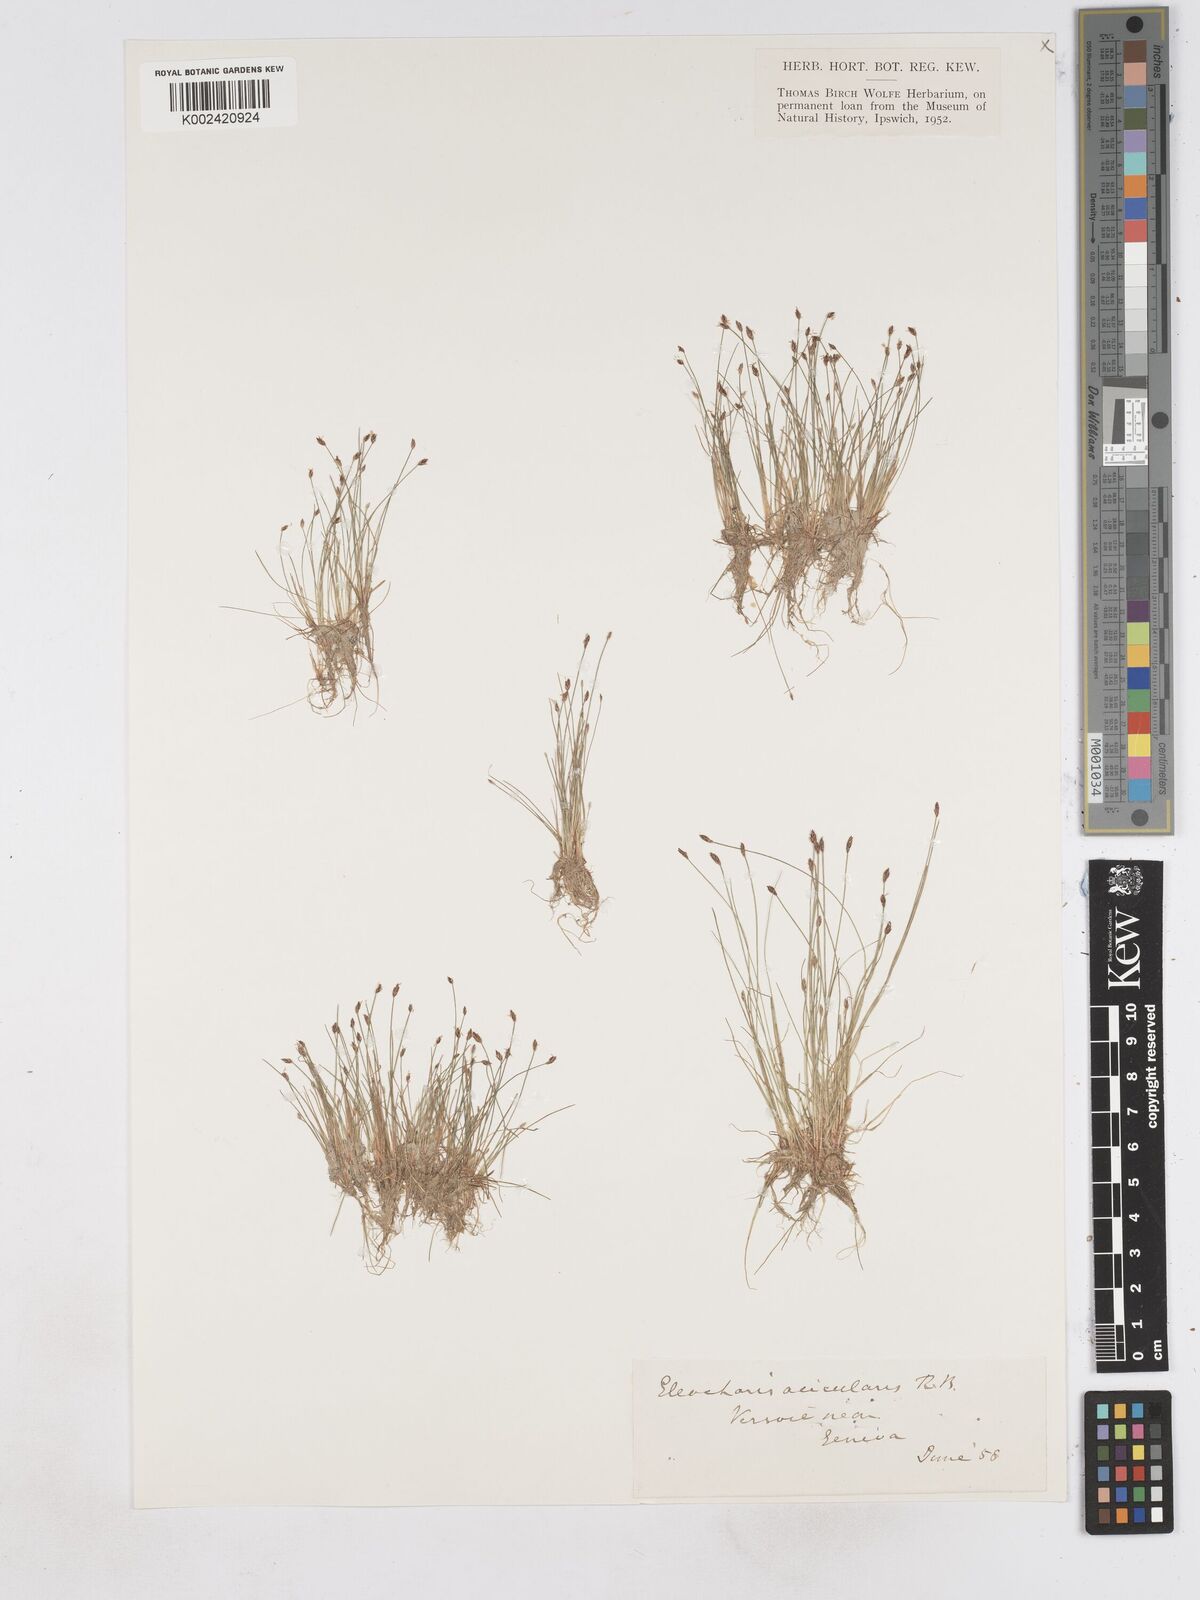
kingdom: Plantae
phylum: Tracheophyta
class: Liliopsida
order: Poales
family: Cyperaceae
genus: Eleocharis
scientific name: Eleocharis acicularis
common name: Needle spike-rush
